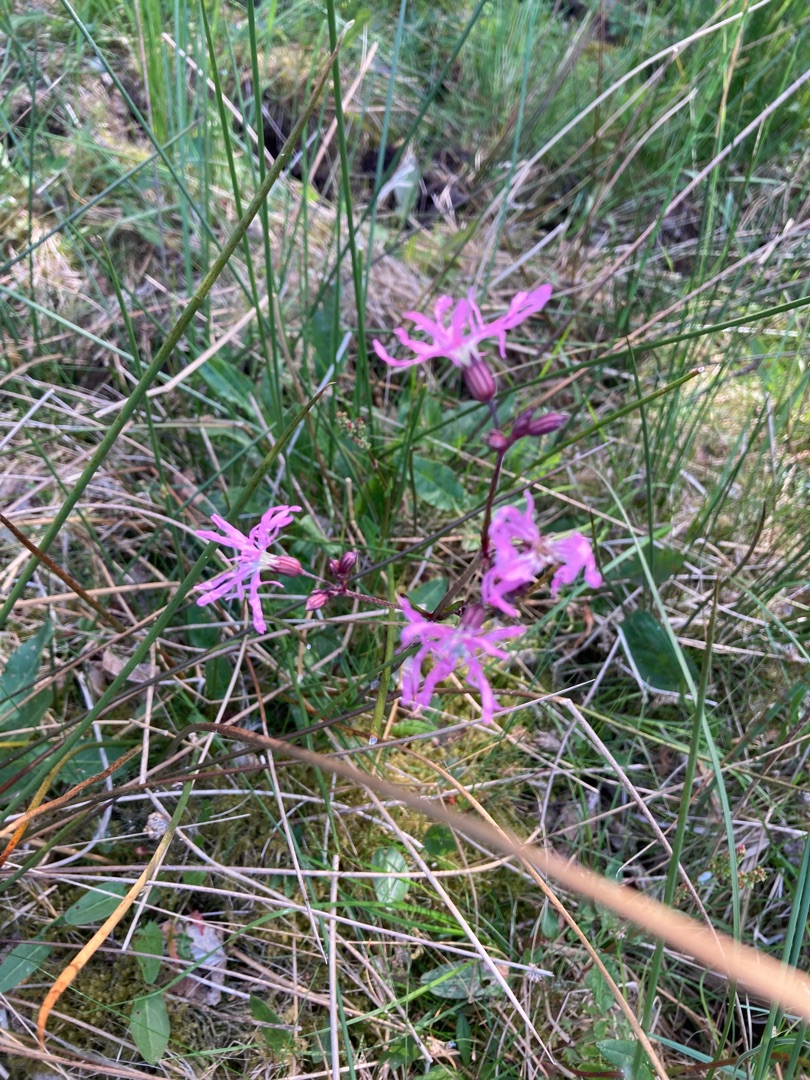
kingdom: Plantae
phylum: Tracheophyta
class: Magnoliopsida
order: Caryophyllales
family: Caryophyllaceae
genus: Silene
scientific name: Silene flos-cuculi
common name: Trævlekrone
